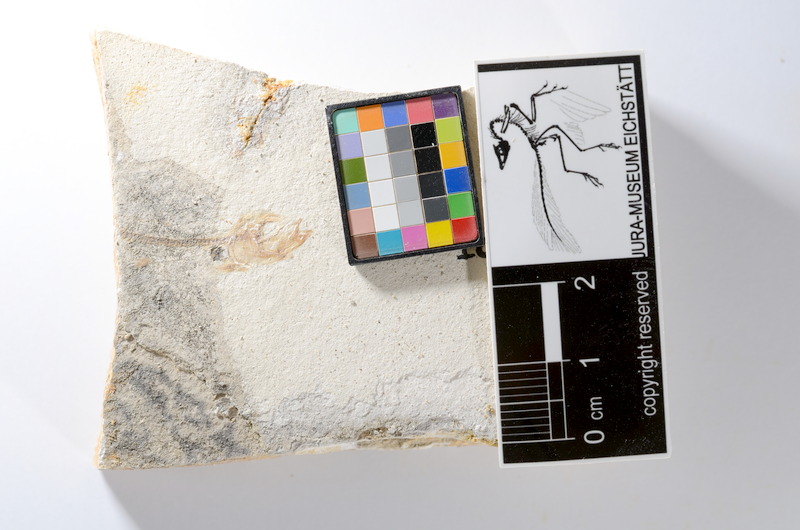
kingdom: Animalia
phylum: Chordata
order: Salmoniformes
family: Orthogonikleithridae
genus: Orthogonikleithrus
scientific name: Orthogonikleithrus hoelli
